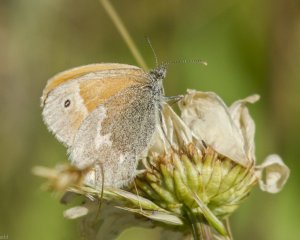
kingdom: Animalia
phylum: Arthropoda
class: Insecta
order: Lepidoptera
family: Nymphalidae
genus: Coenonympha
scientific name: Coenonympha tullia
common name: Large Heath
